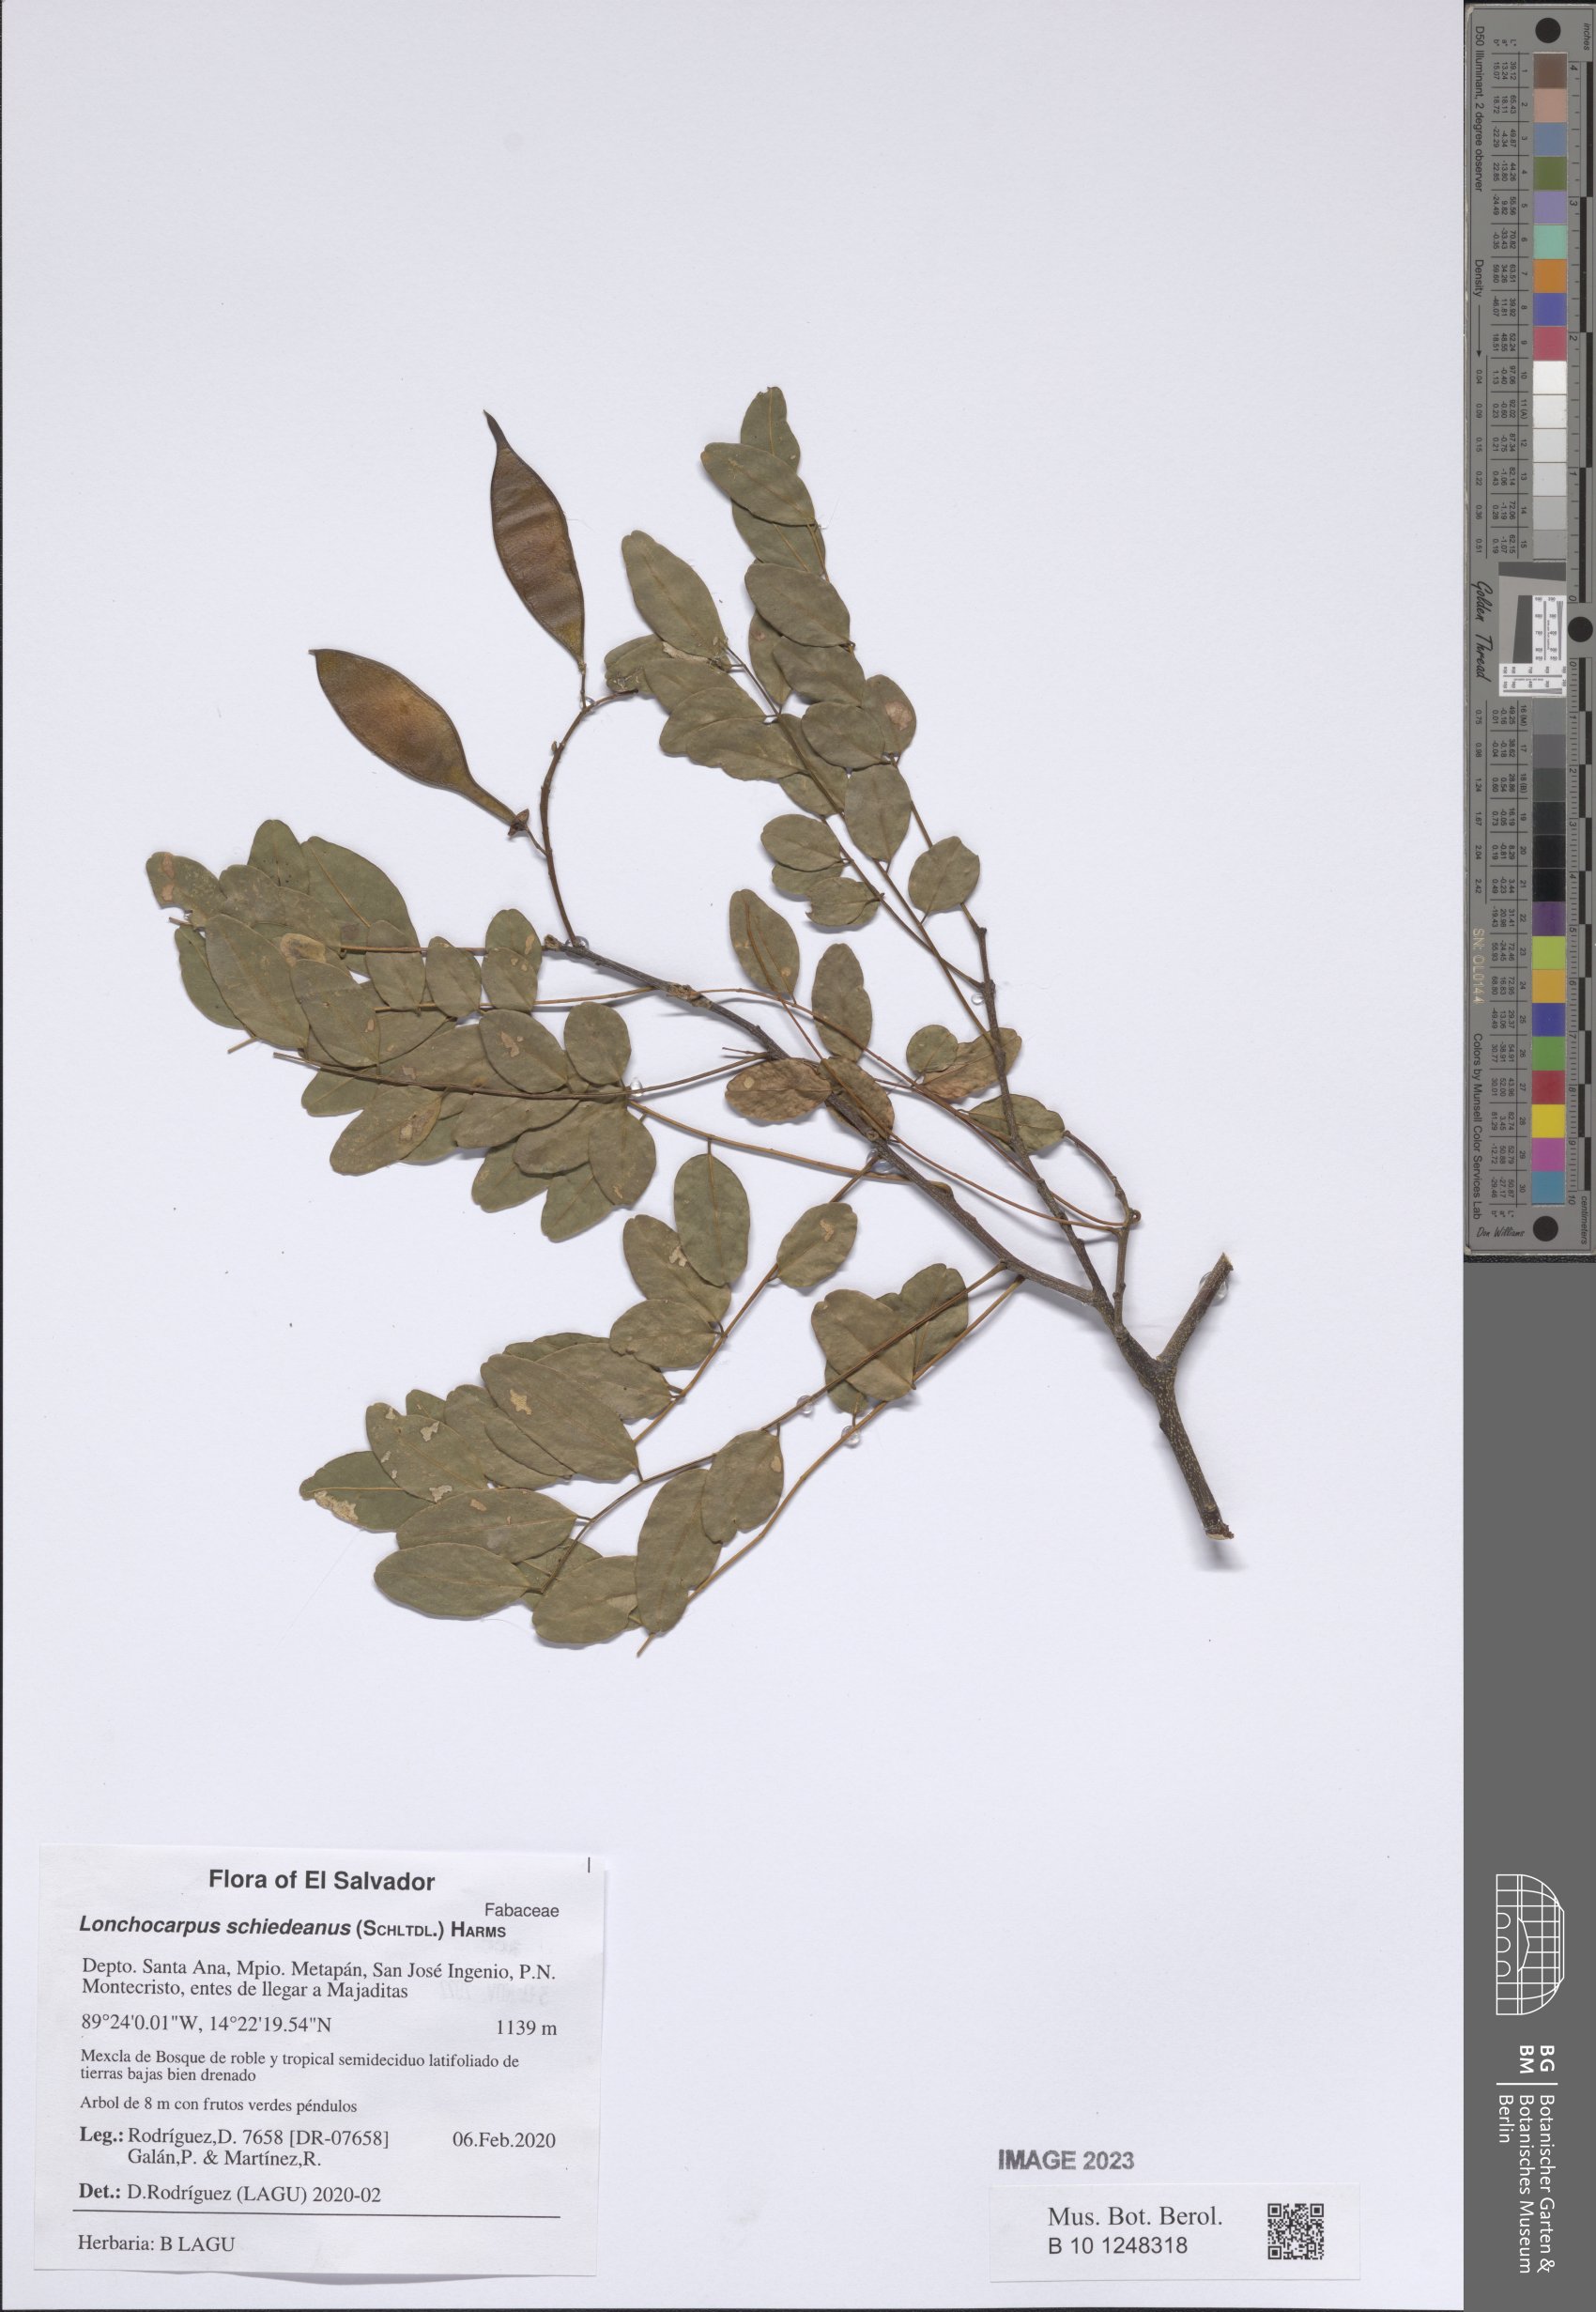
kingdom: Plantae
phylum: Tracheophyta
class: Magnoliopsida
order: Fabales
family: Fabaceae
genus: Lonchocarpus
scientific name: Lonchocarpus schiedeanus
